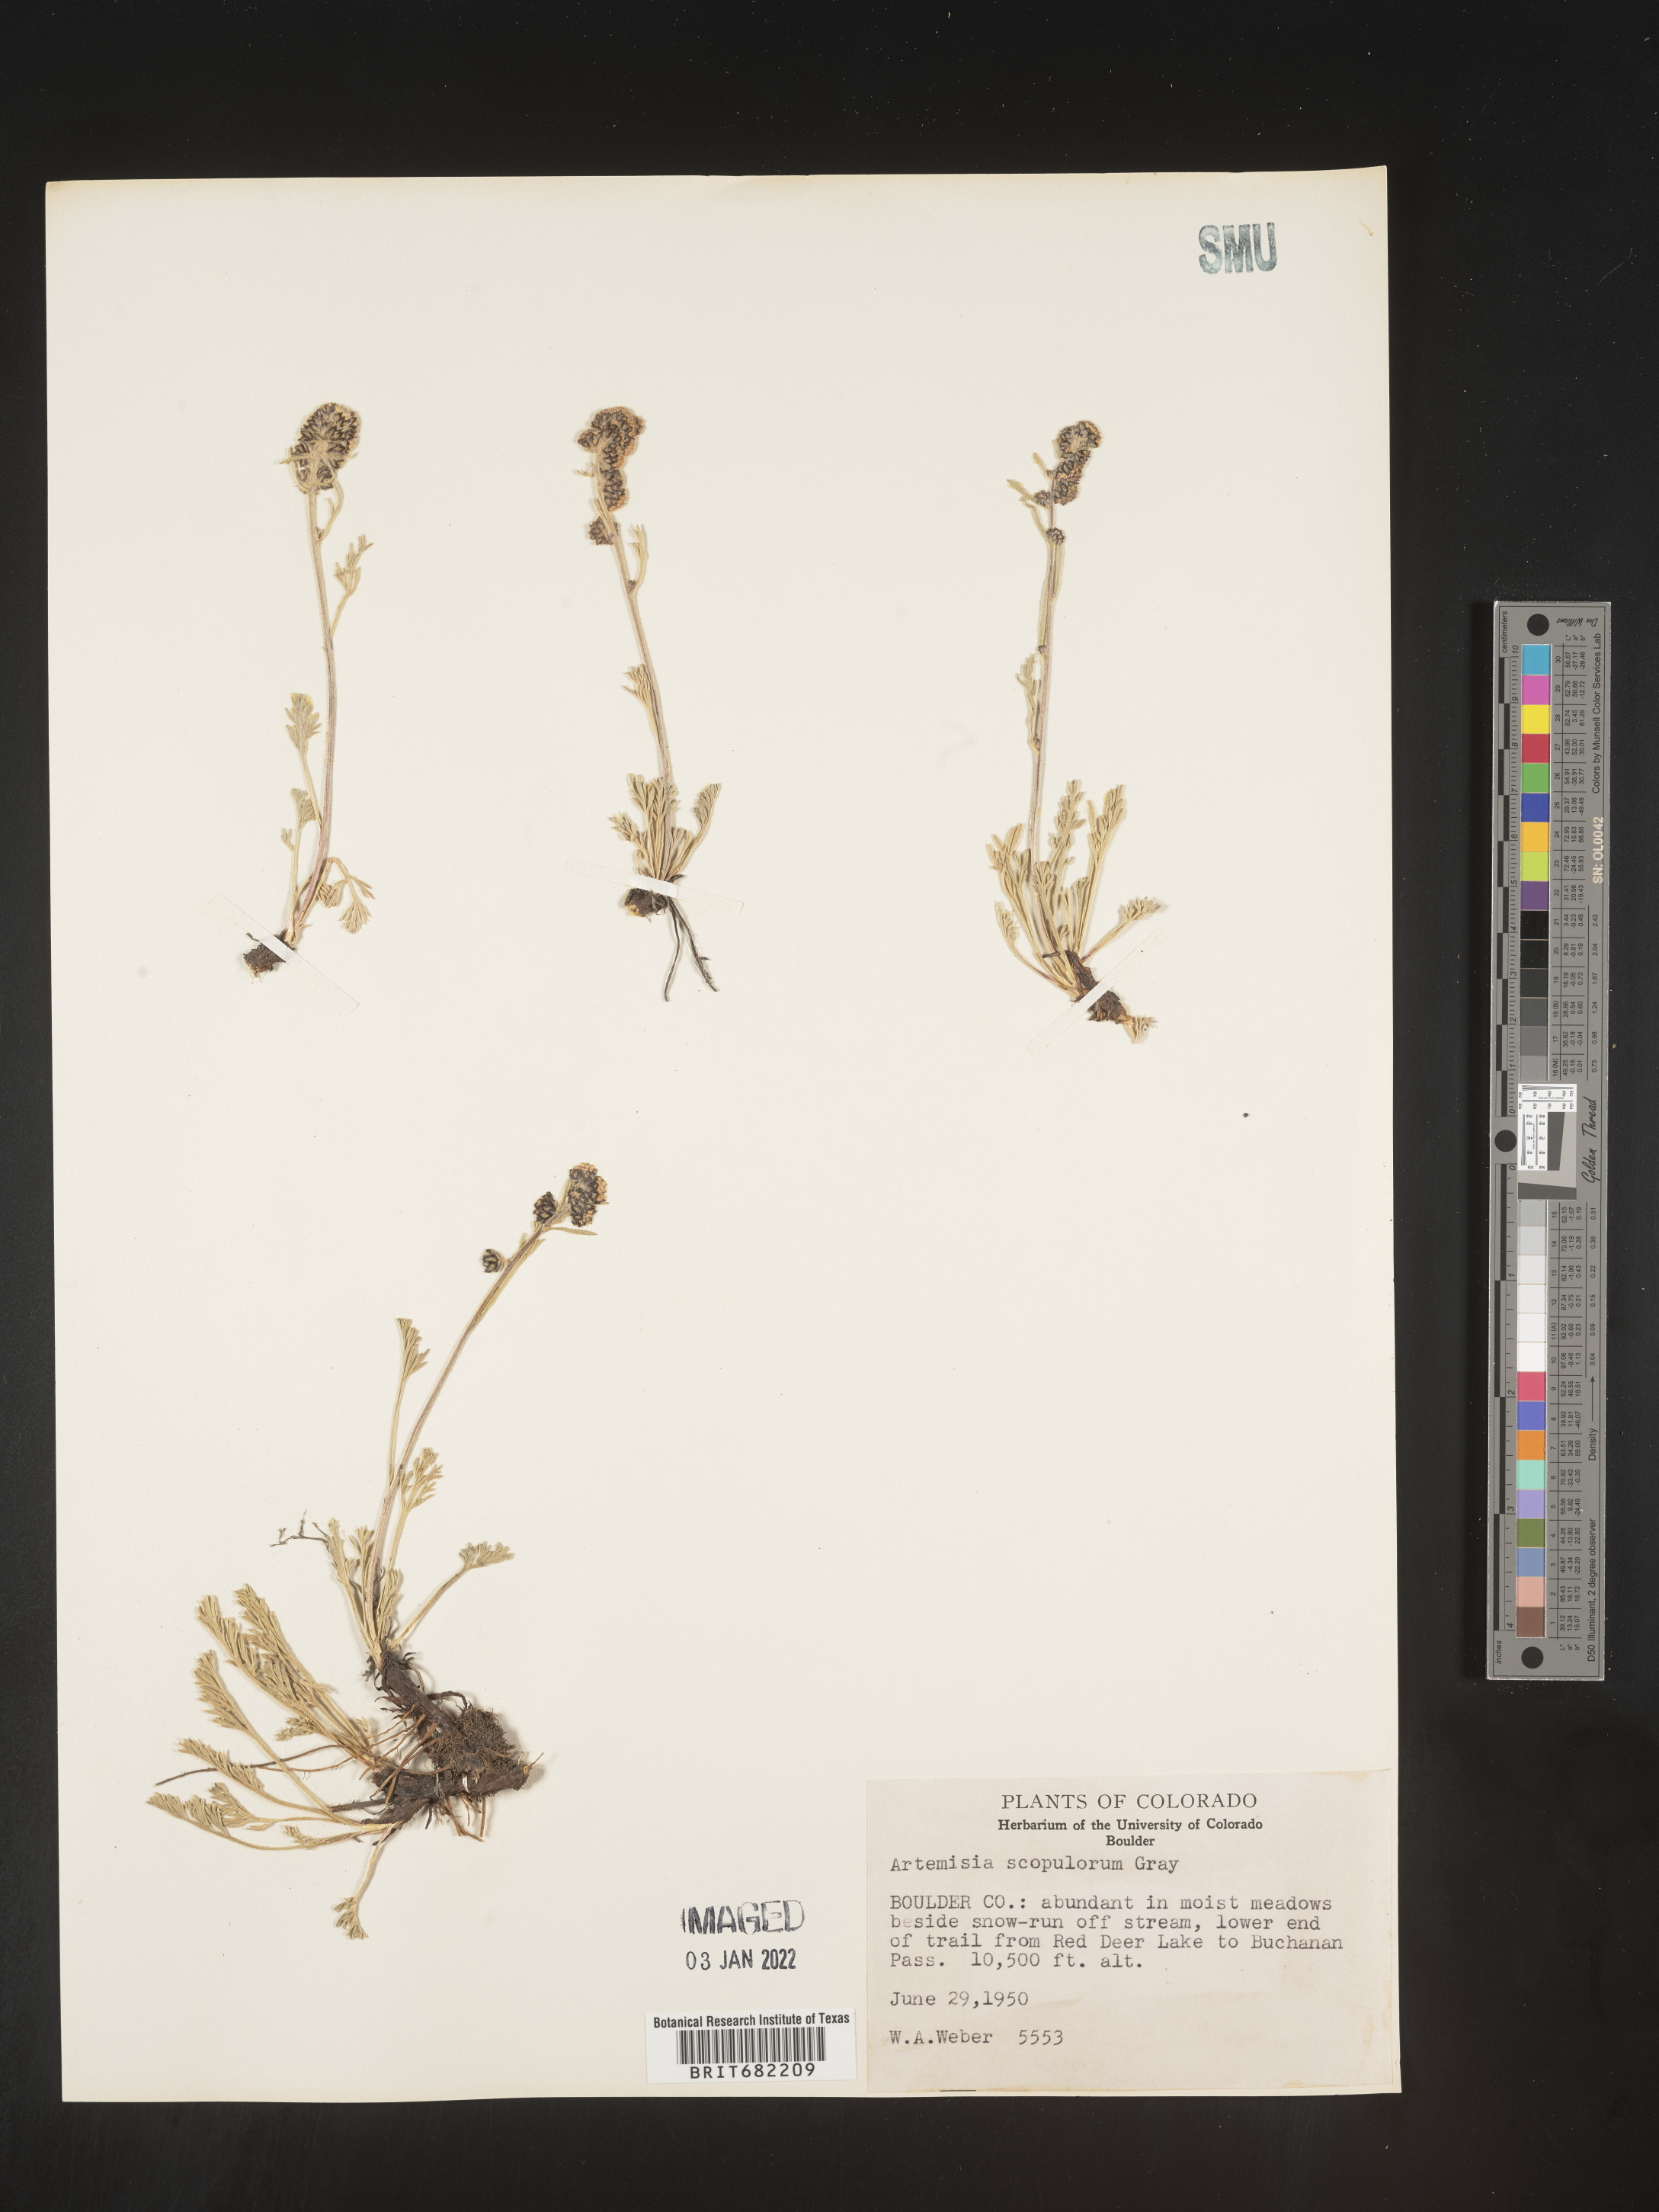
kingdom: Plantae
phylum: Tracheophyta
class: Magnoliopsida
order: Asterales
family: Asteraceae
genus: Artemisia
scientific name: Artemisia scopulorum
